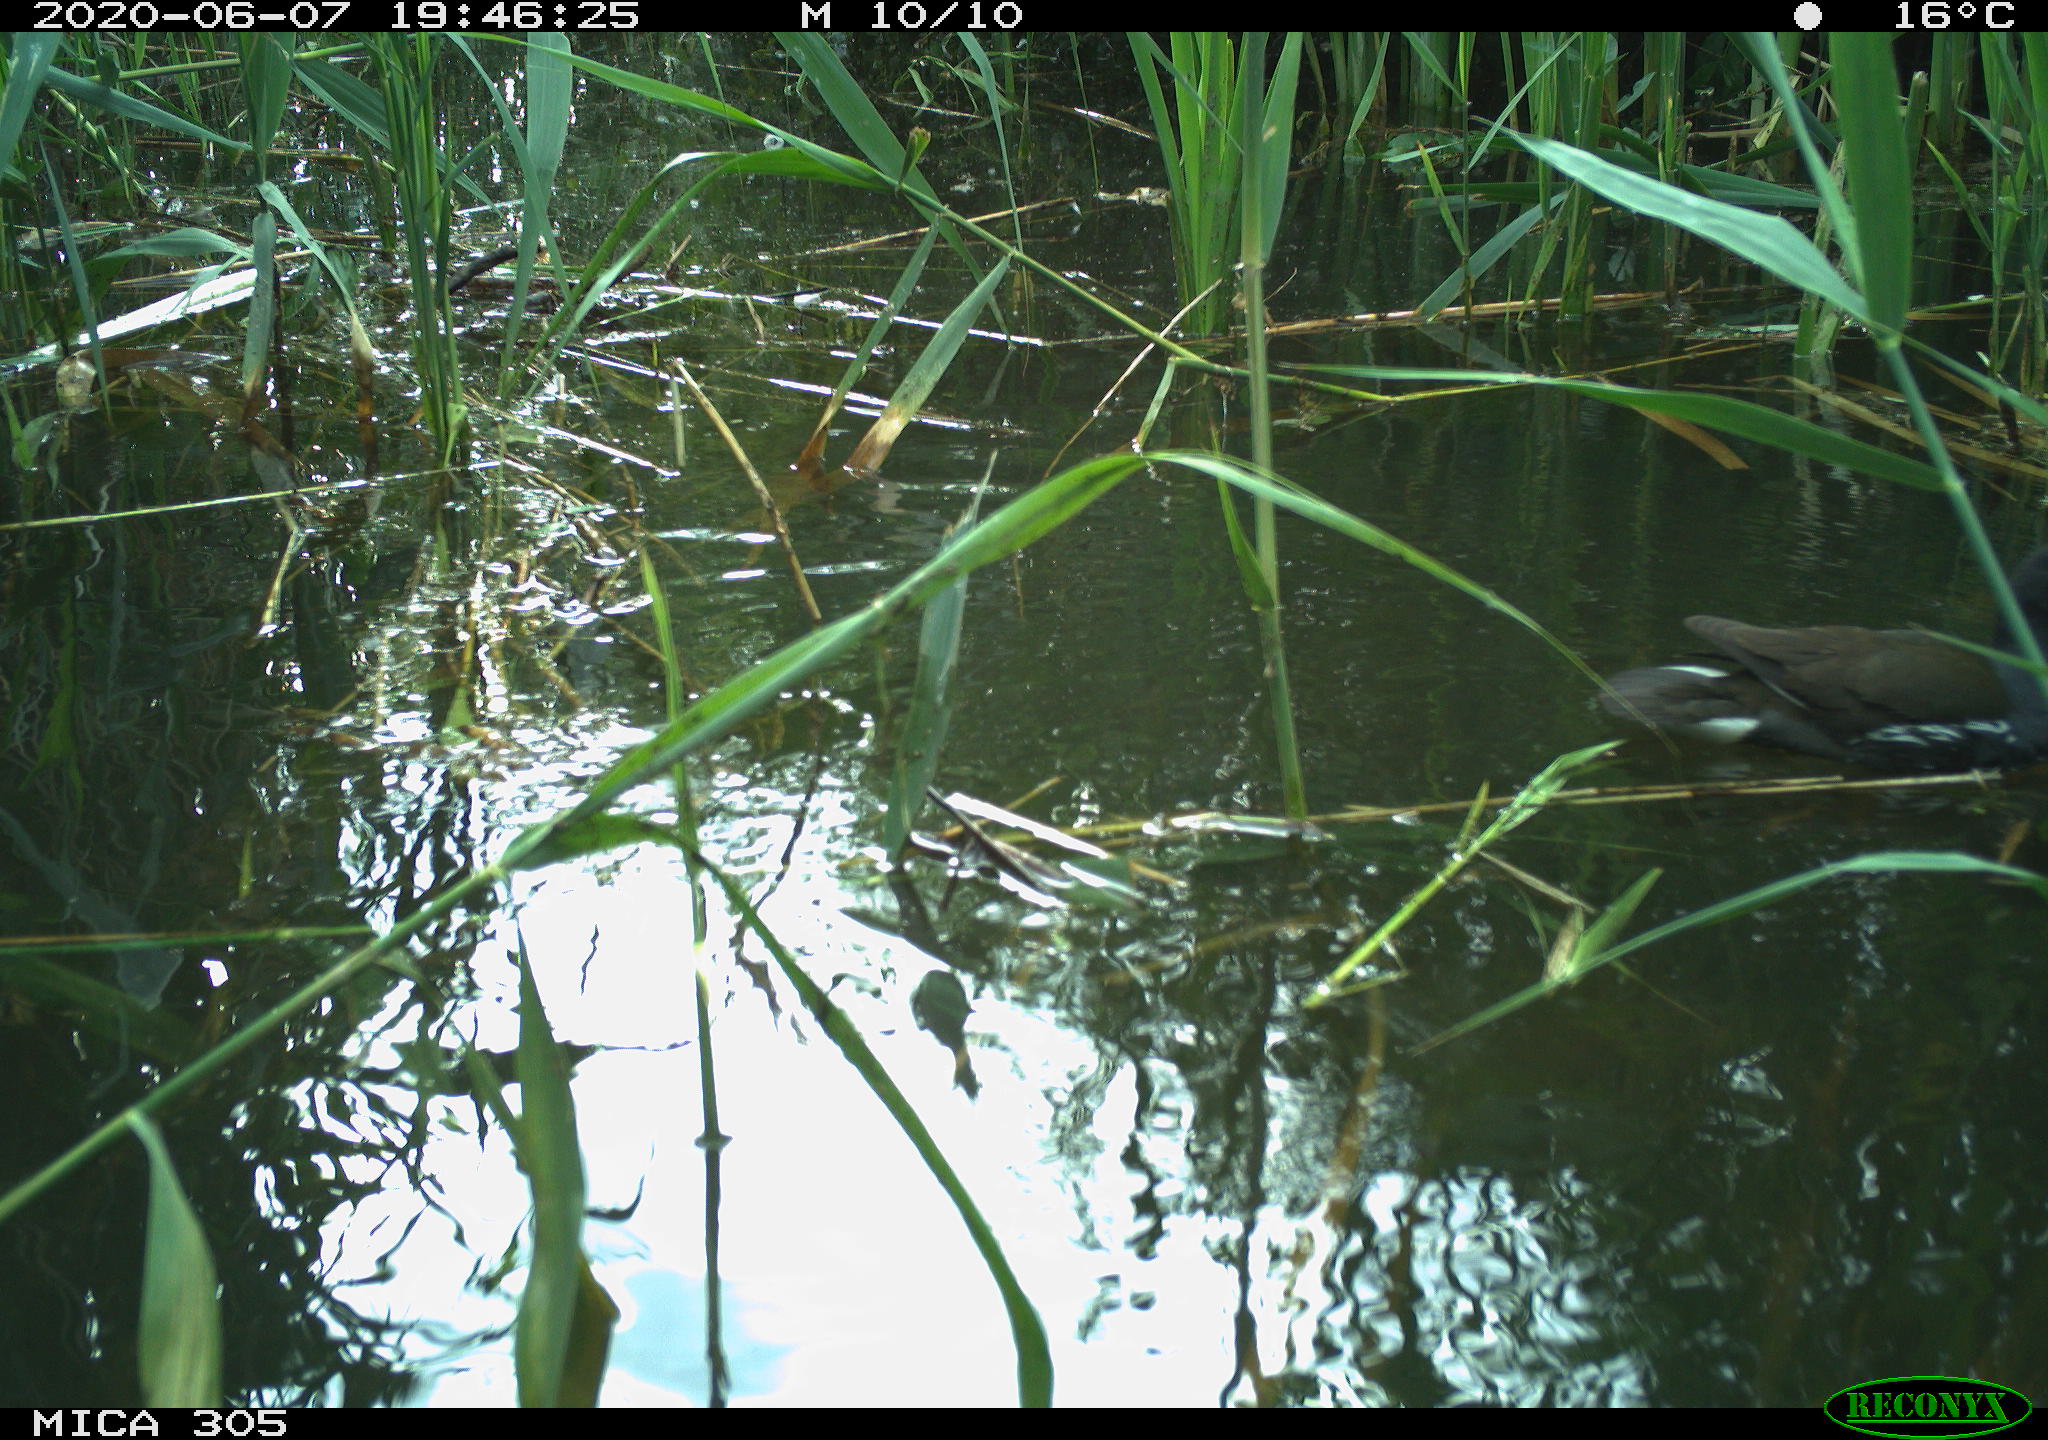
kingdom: Animalia
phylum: Chordata
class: Aves
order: Gruiformes
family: Rallidae
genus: Gallinula
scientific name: Gallinula chloropus
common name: Common moorhen
